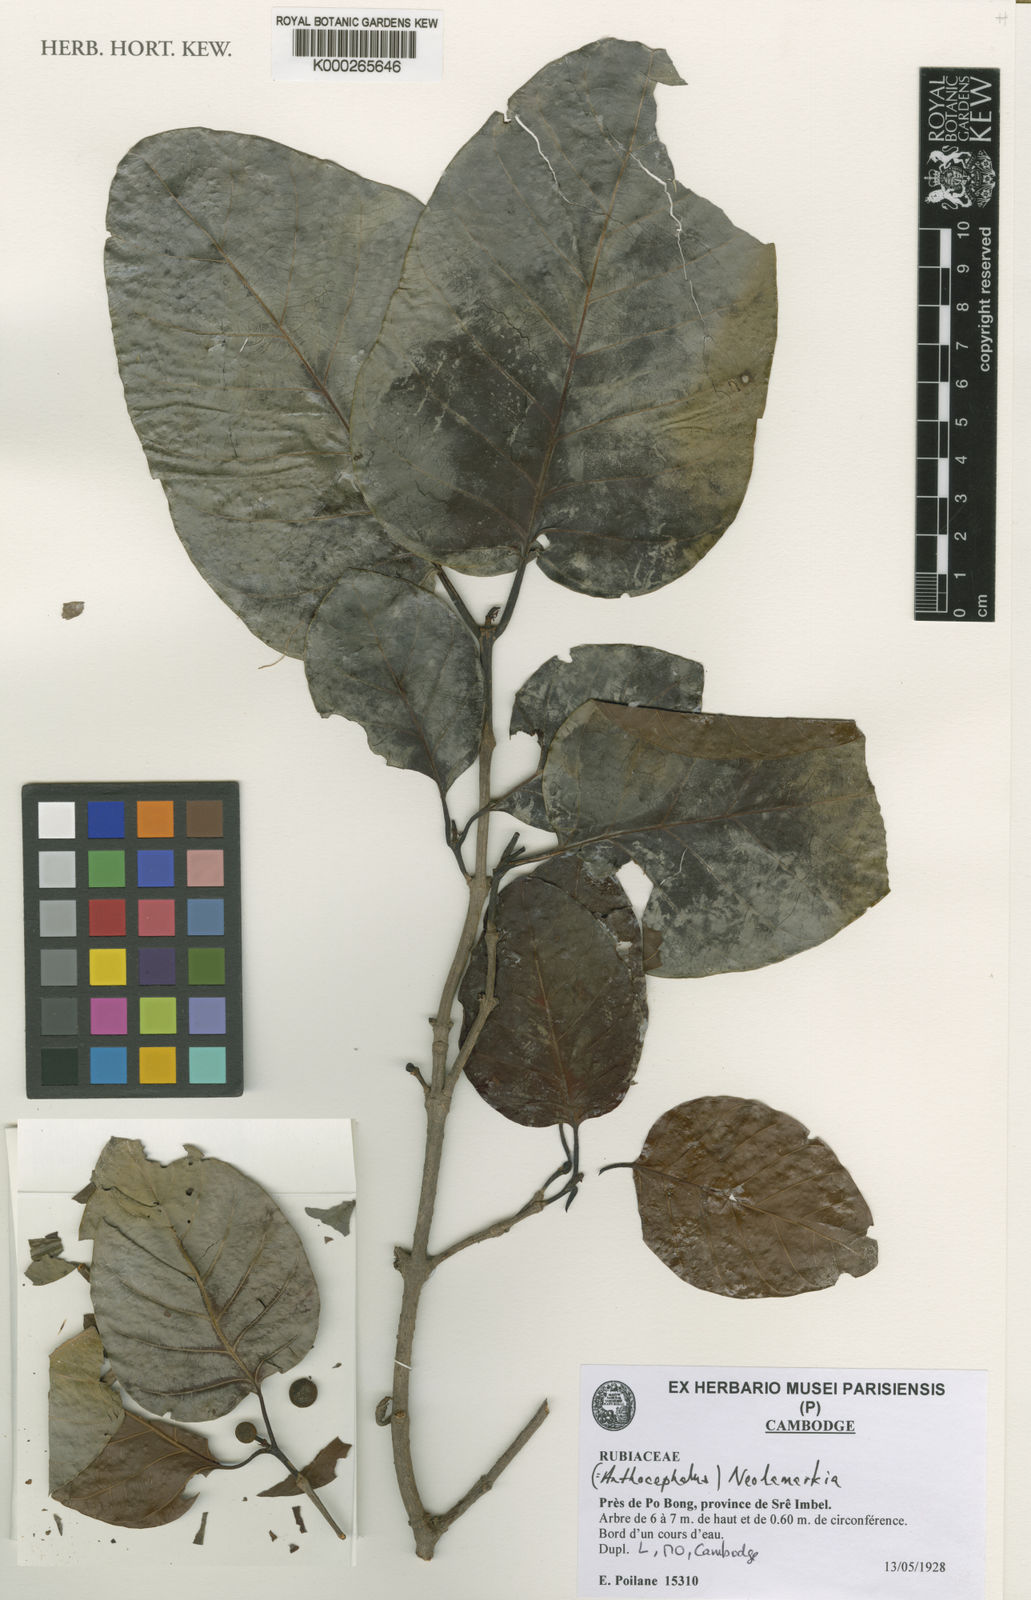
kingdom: Plantae
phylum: Tracheophyta
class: Magnoliopsida
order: Gentianales
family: Rubiaceae
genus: Neolamarckia
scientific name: Neolamarckia cadamba
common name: Leichhardt-pine
